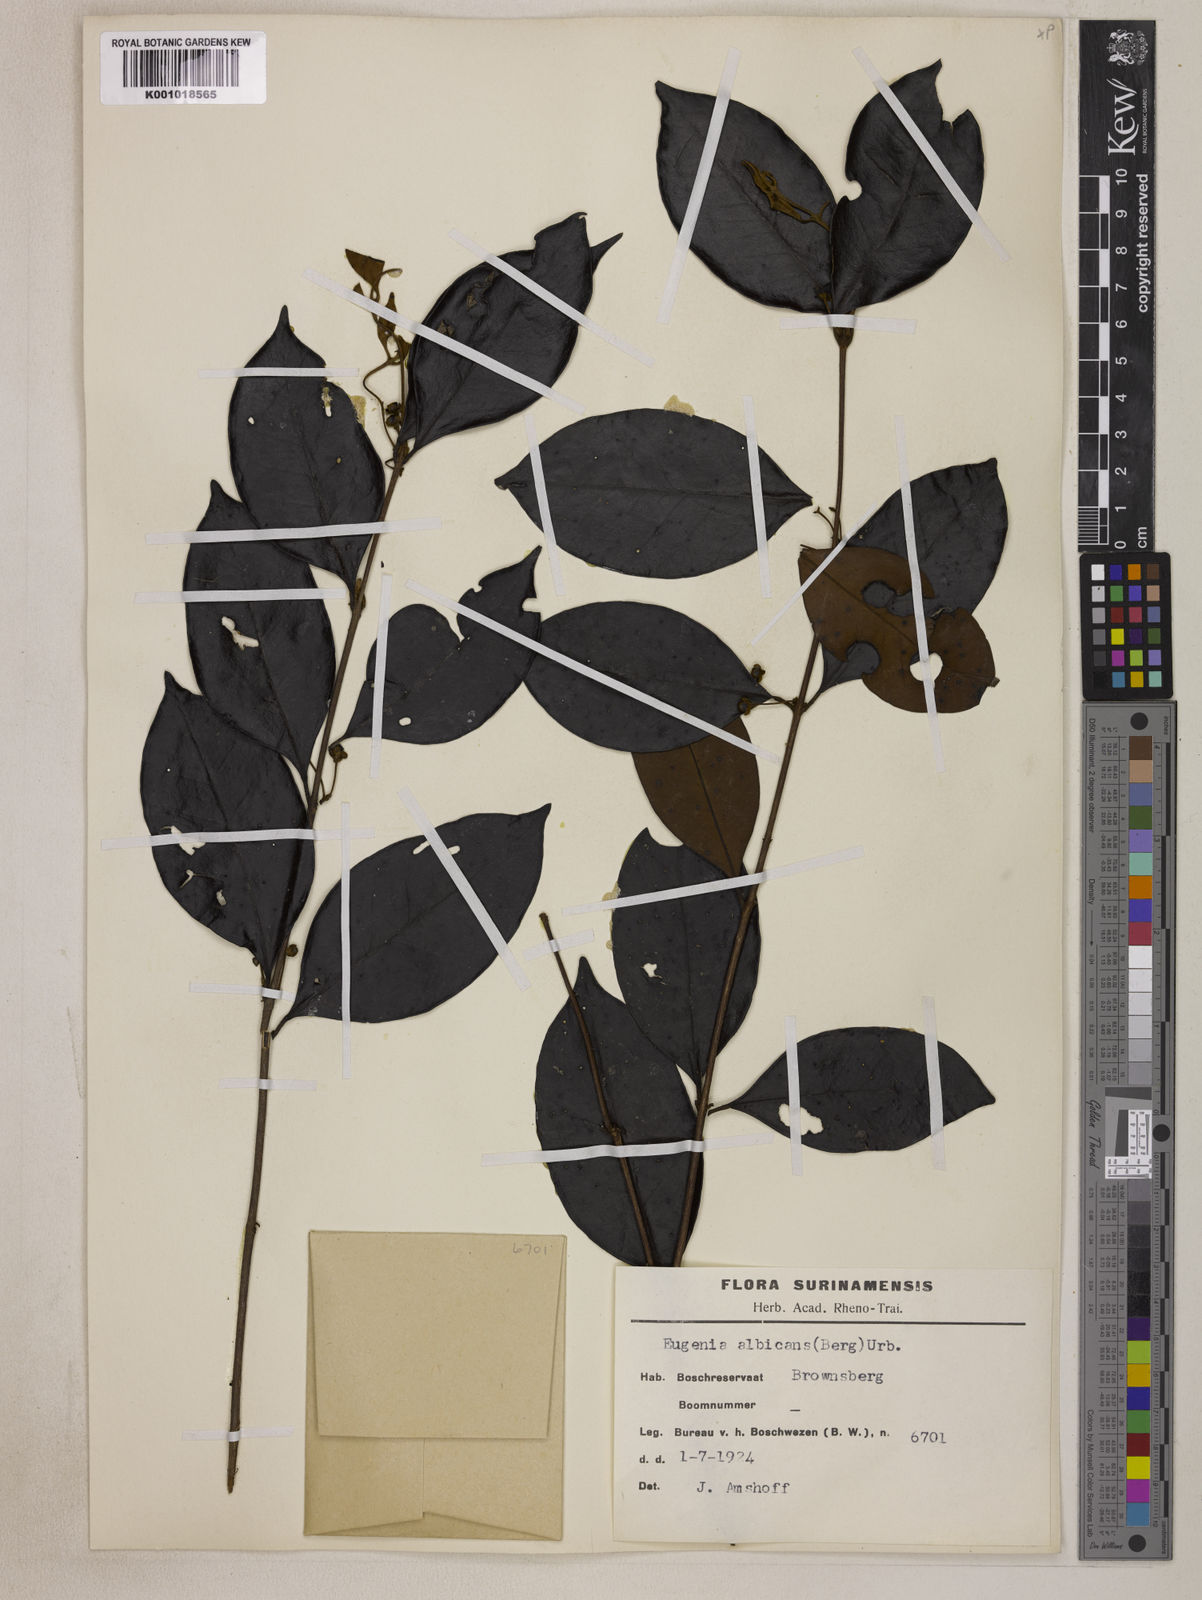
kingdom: Plantae
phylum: Tracheophyta
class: Magnoliopsida
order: Myrtales
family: Myrtaceae
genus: Eugenia
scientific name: Eugenia albicans
